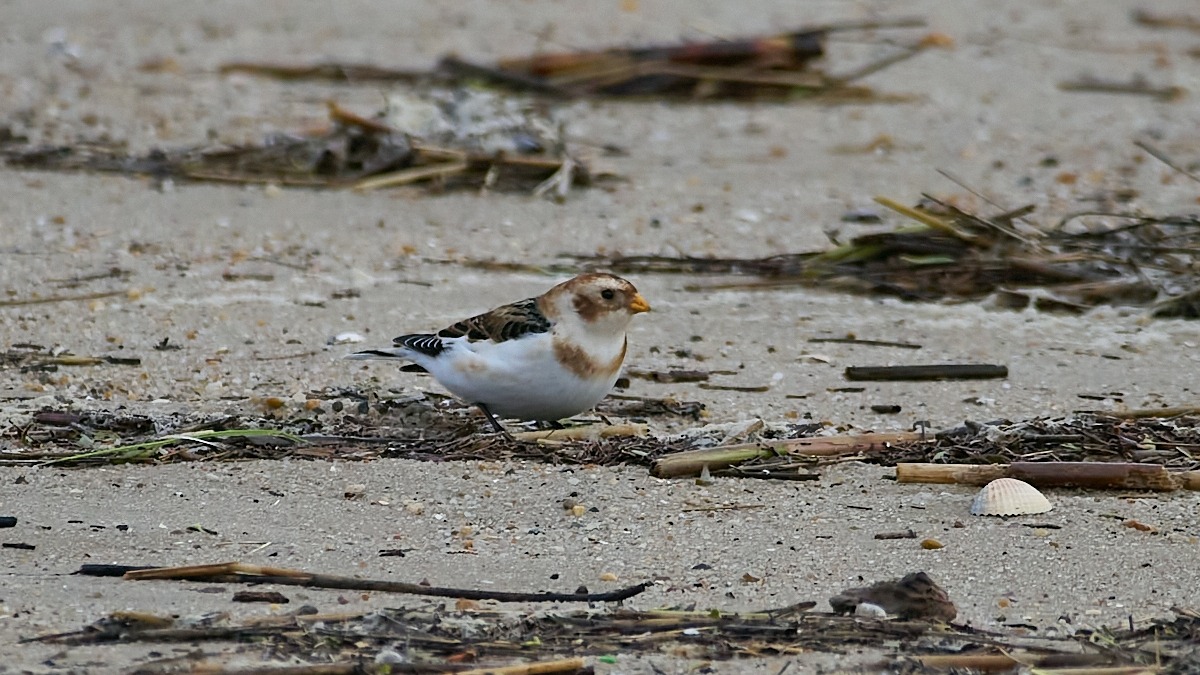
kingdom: Animalia
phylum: Chordata
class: Aves
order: Passeriformes
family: Calcariidae
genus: Plectrophenax
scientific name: Plectrophenax nivalis
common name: Snespurv
